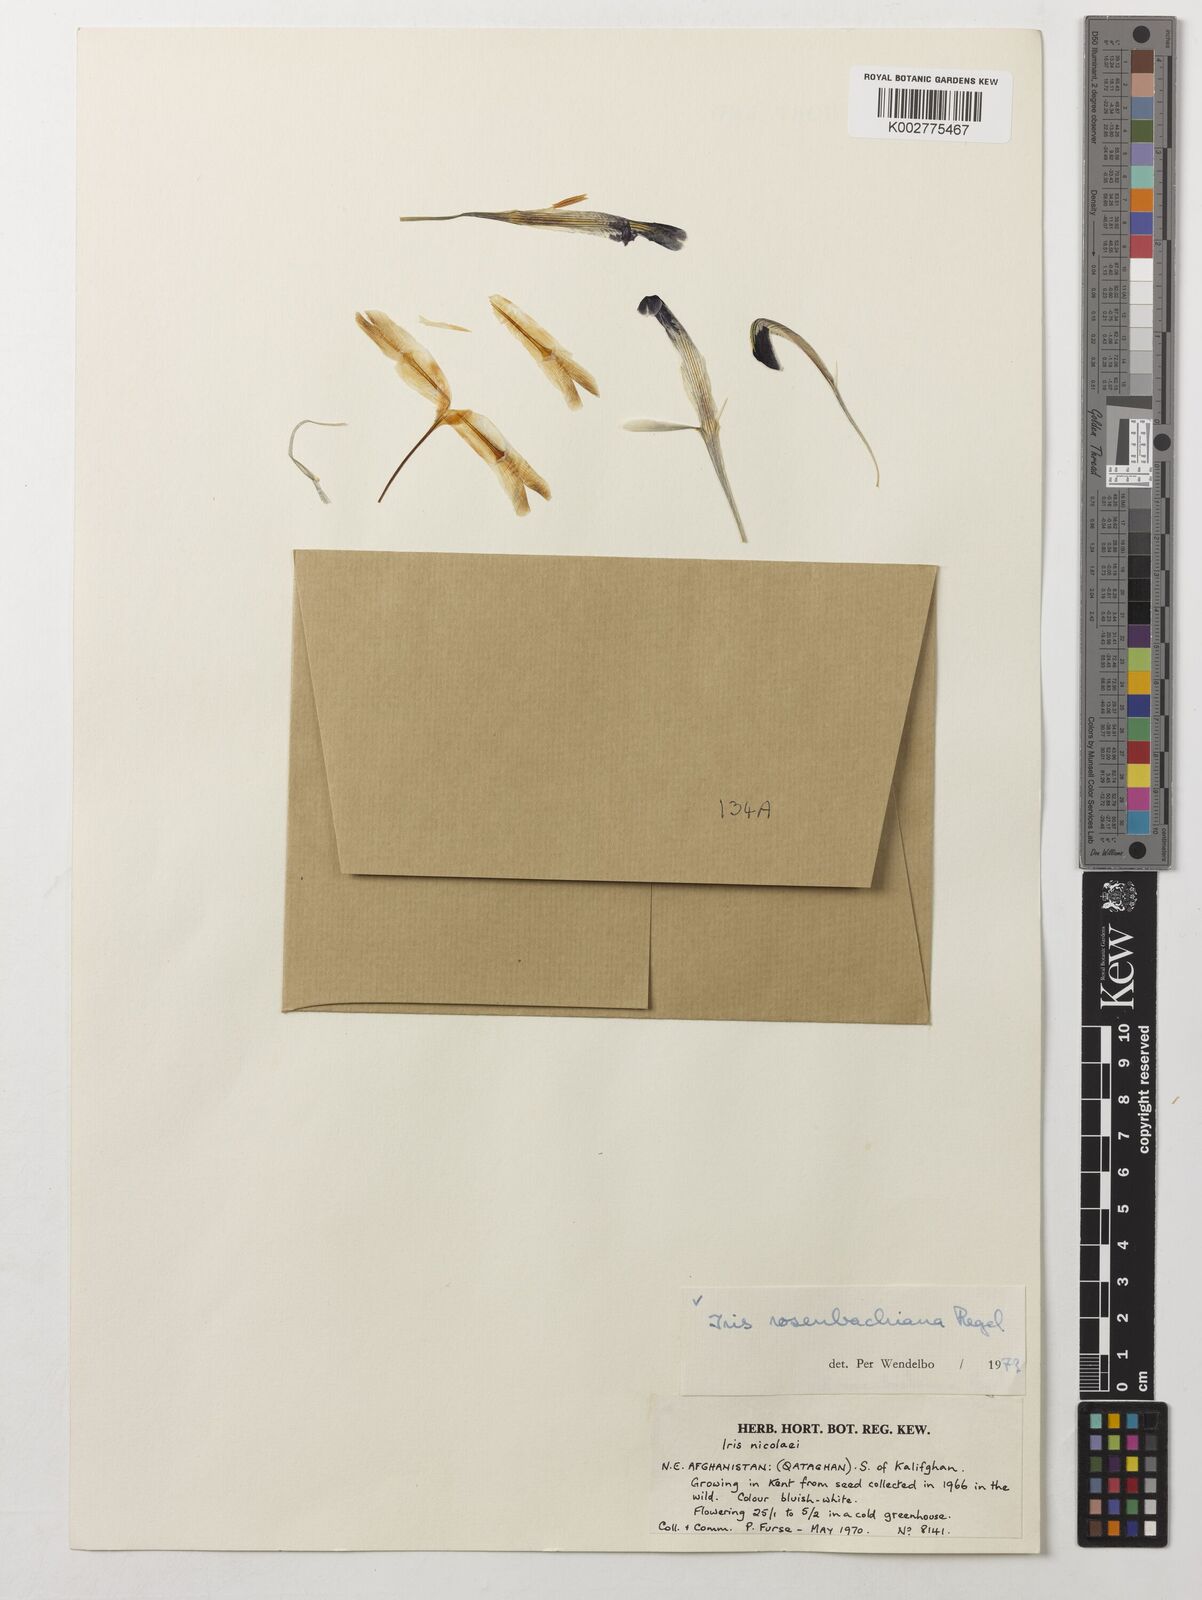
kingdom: Plantae
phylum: Tracheophyta
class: Liliopsida
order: Asparagales
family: Iridaceae
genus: Iris
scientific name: Iris rosenbachiana
